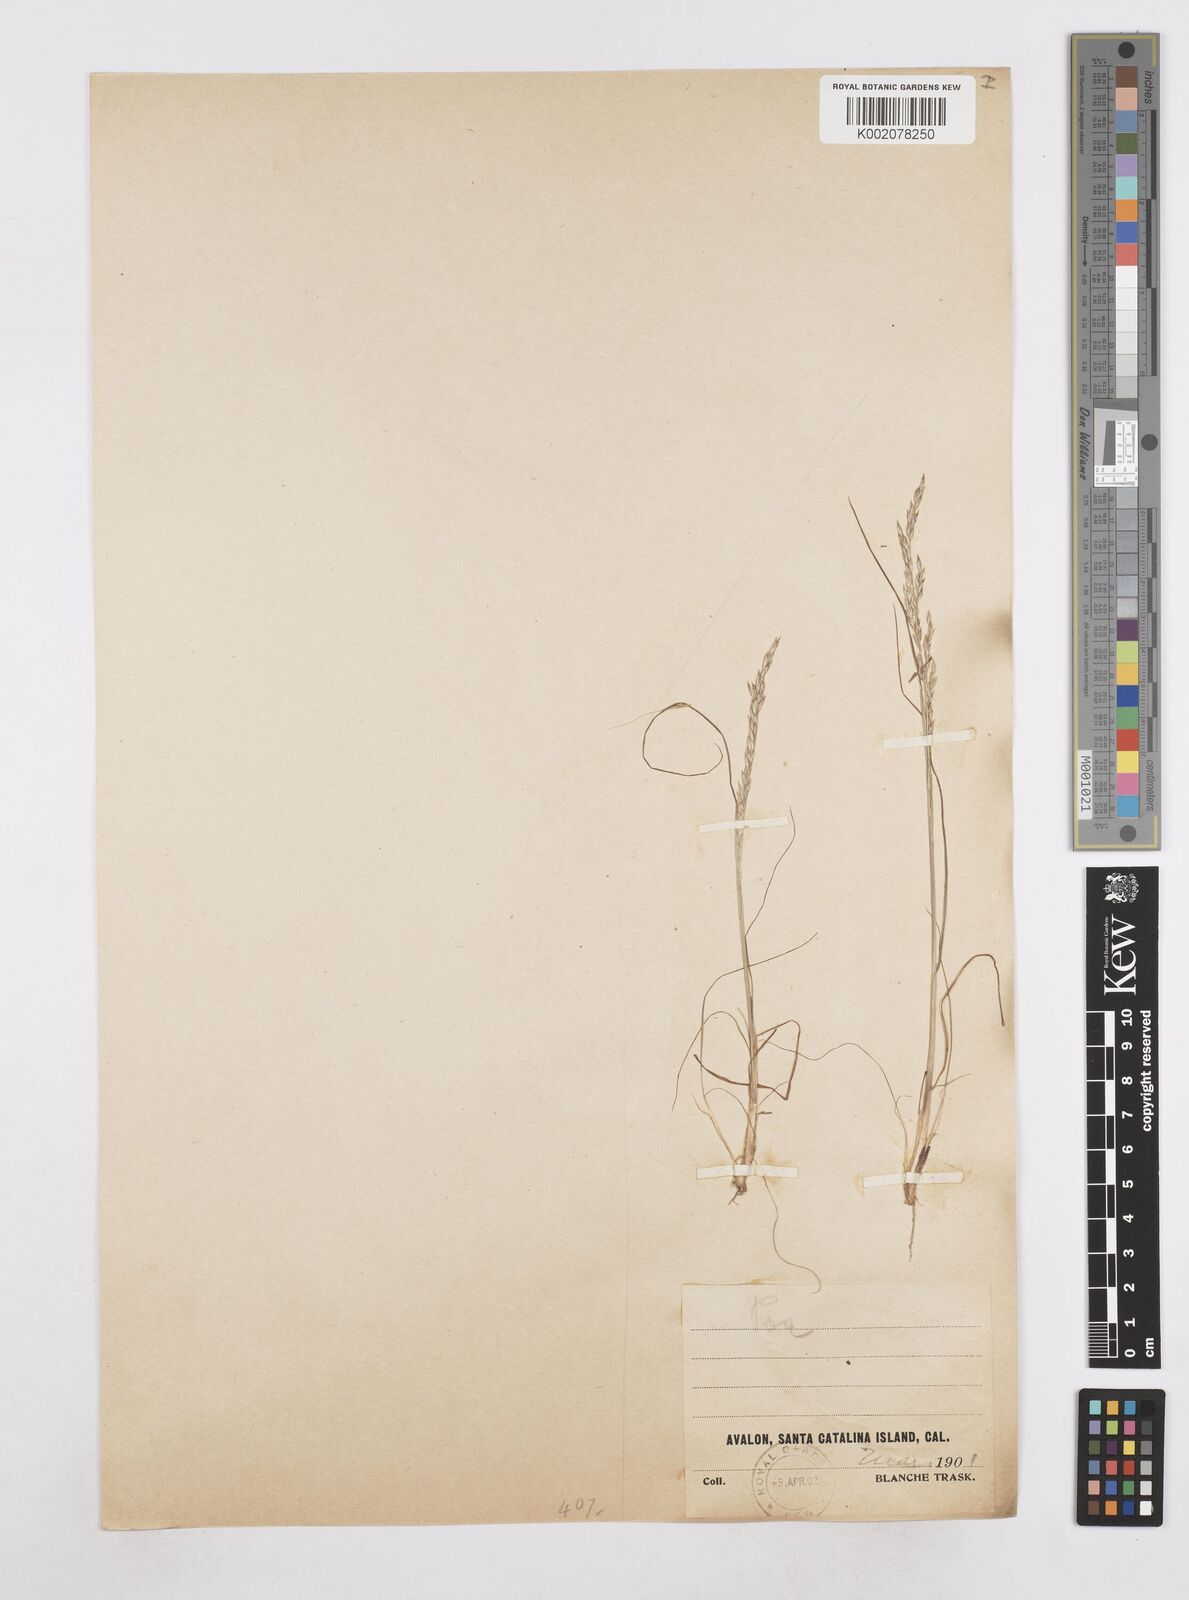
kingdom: Plantae
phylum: Tracheophyta
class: Liliopsida
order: Poales
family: Poaceae
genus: Poa
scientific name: Poa
